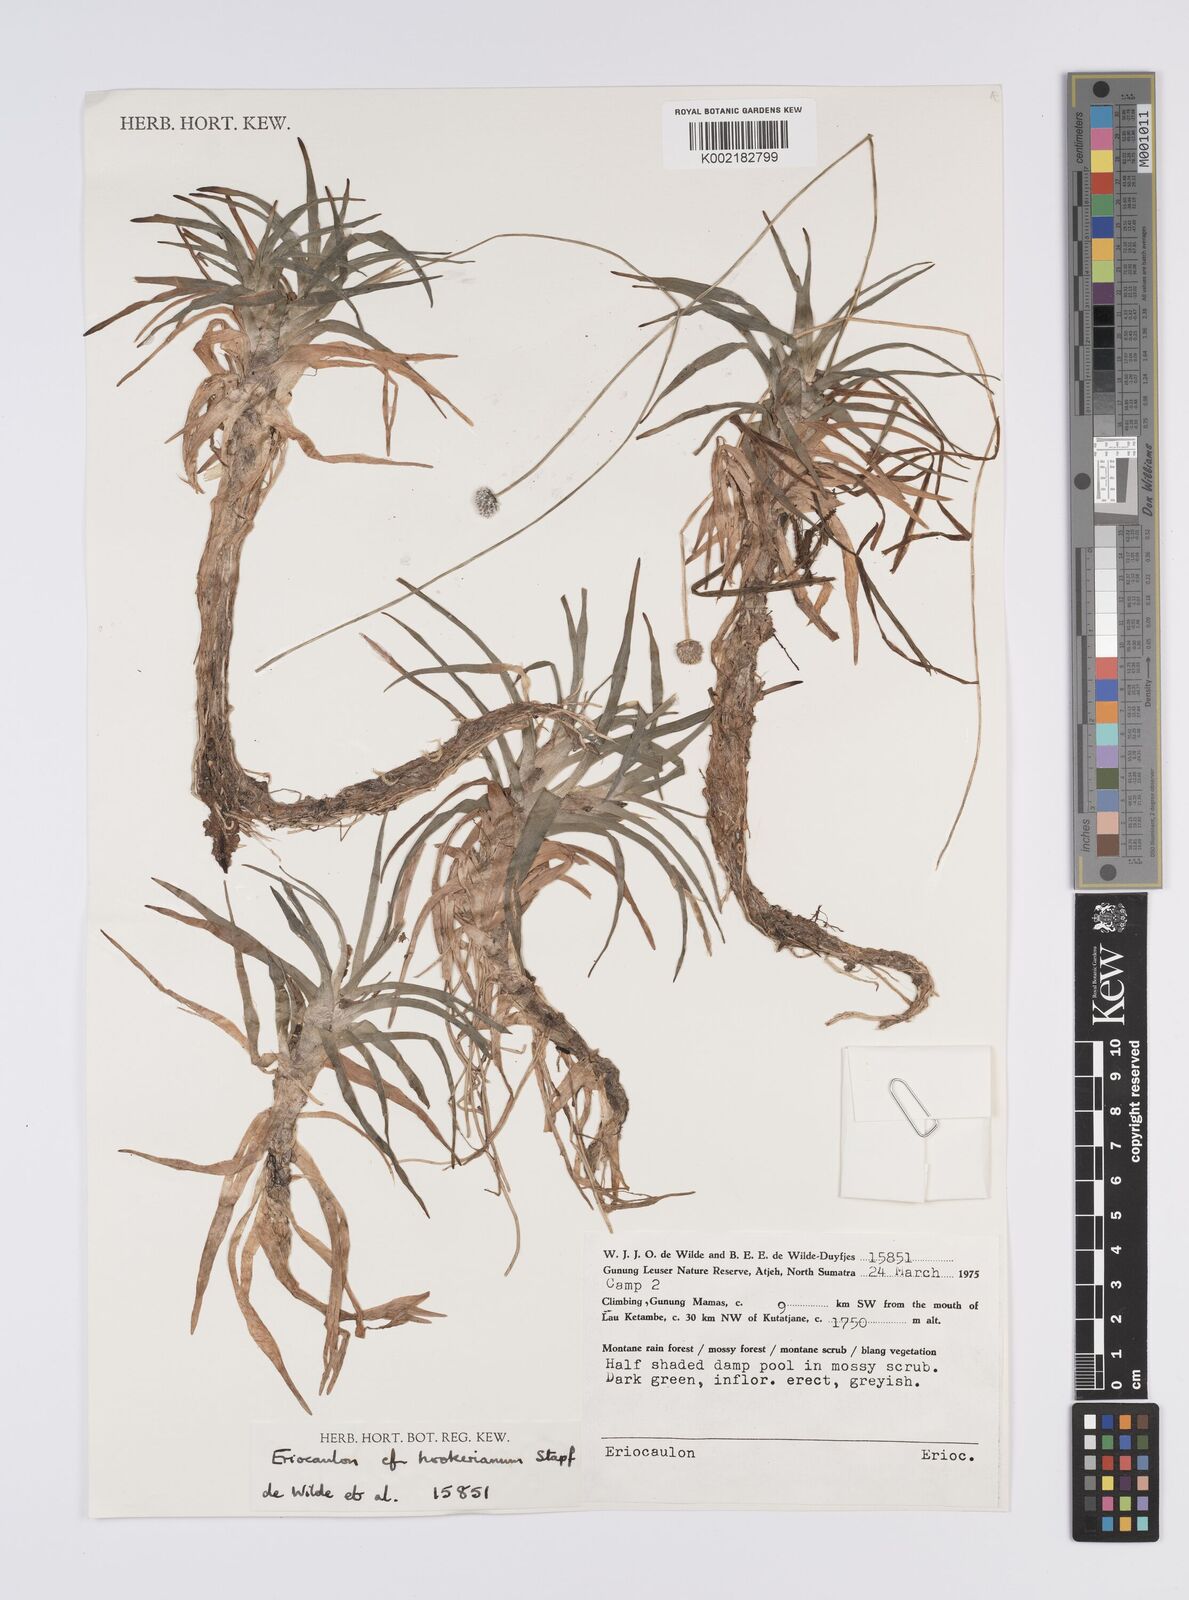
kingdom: Plantae
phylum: Tracheophyta
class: Liliopsida
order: Poales
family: Eriocaulaceae
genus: Eriocaulon
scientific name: Eriocaulon hookerianum
